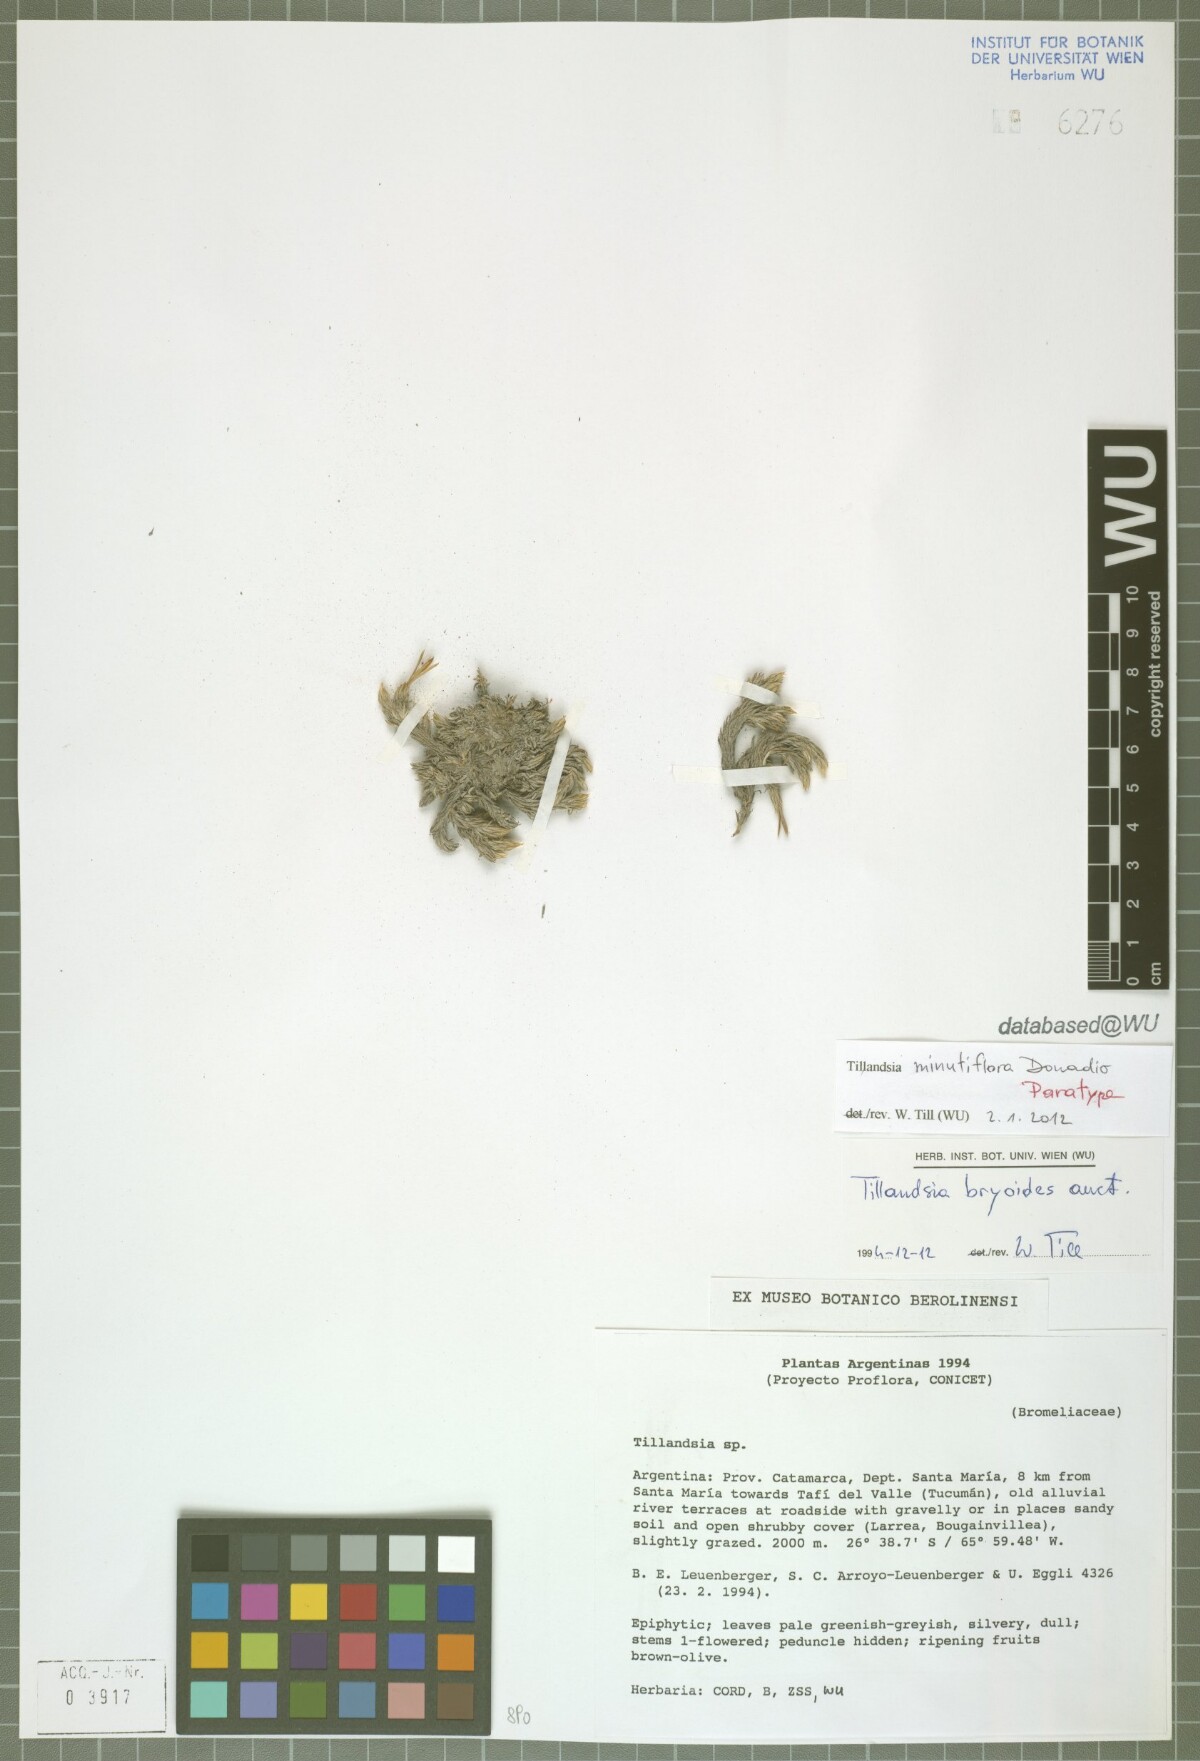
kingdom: Plantae
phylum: Tracheophyta
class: Liliopsida
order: Poales
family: Bromeliaceae
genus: Tillandsia
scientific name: Tillandsia minutiflora
